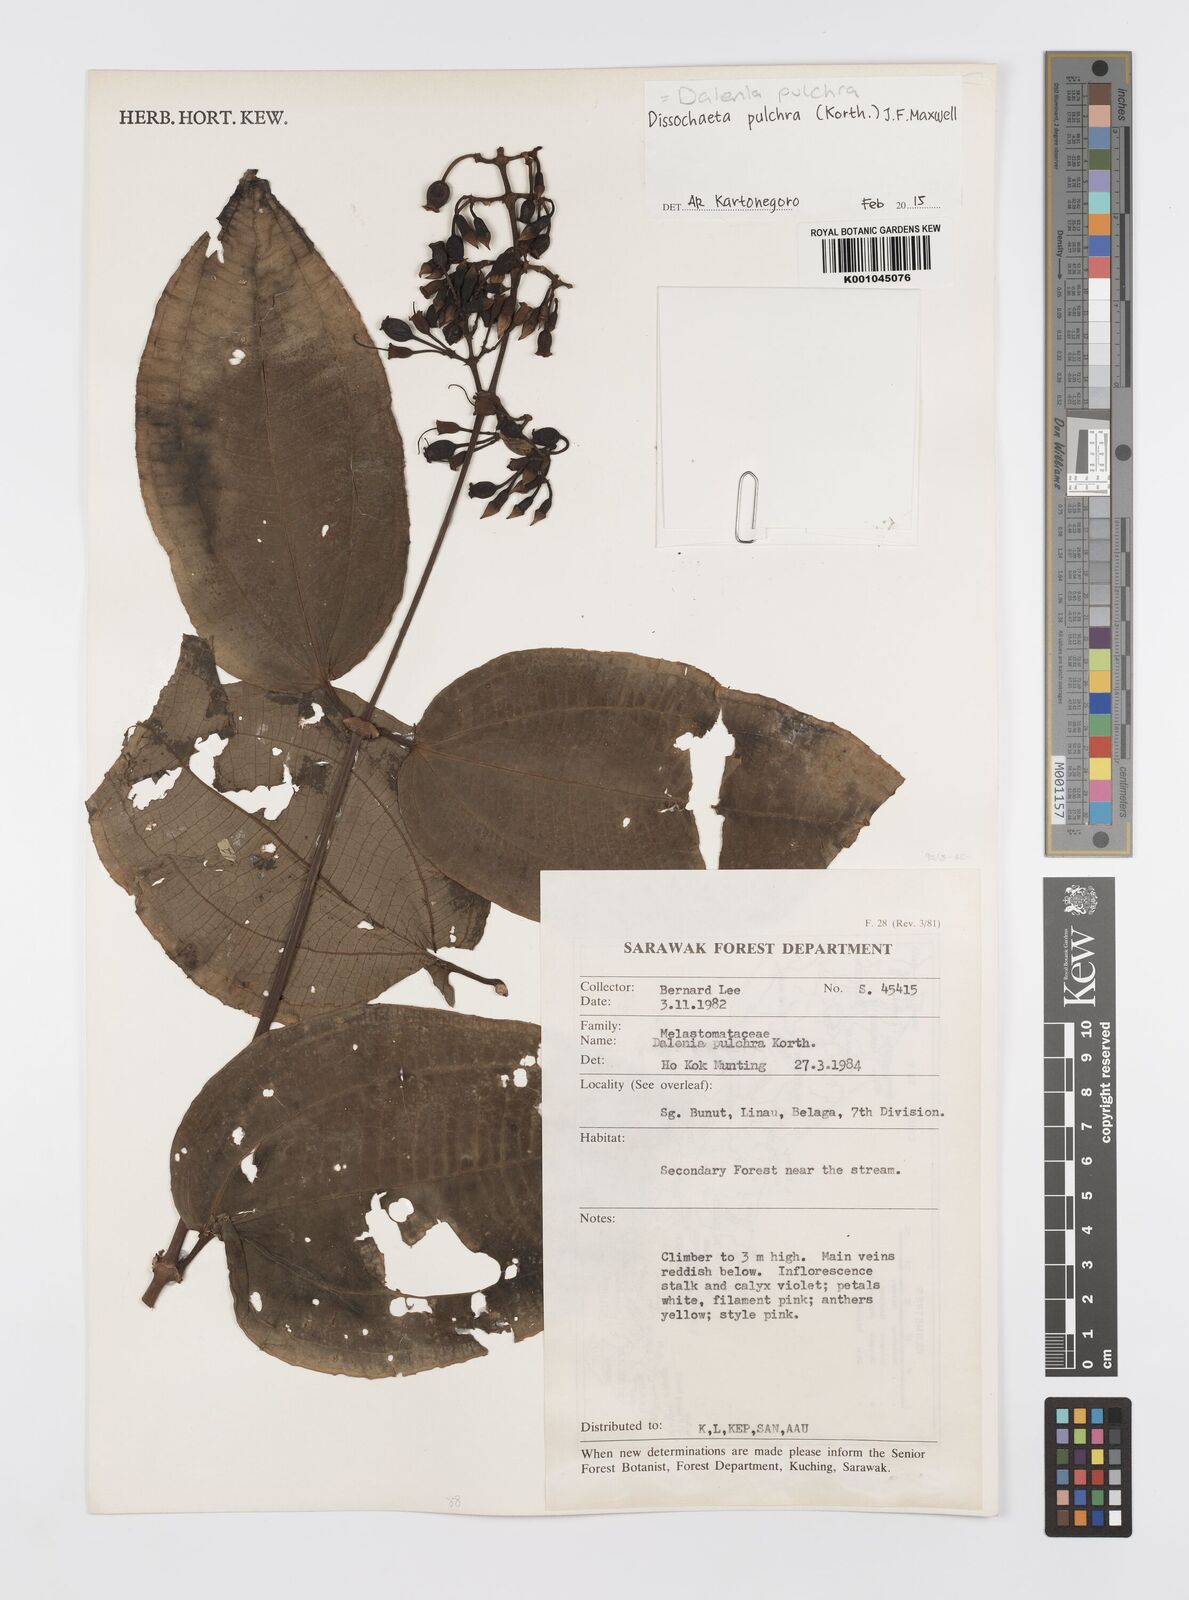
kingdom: Plantae
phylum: Tracheophyta
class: Magnoliopsida
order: Myrtales
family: Melastomataceae
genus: Dalenia
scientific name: Dalenia pulchra
